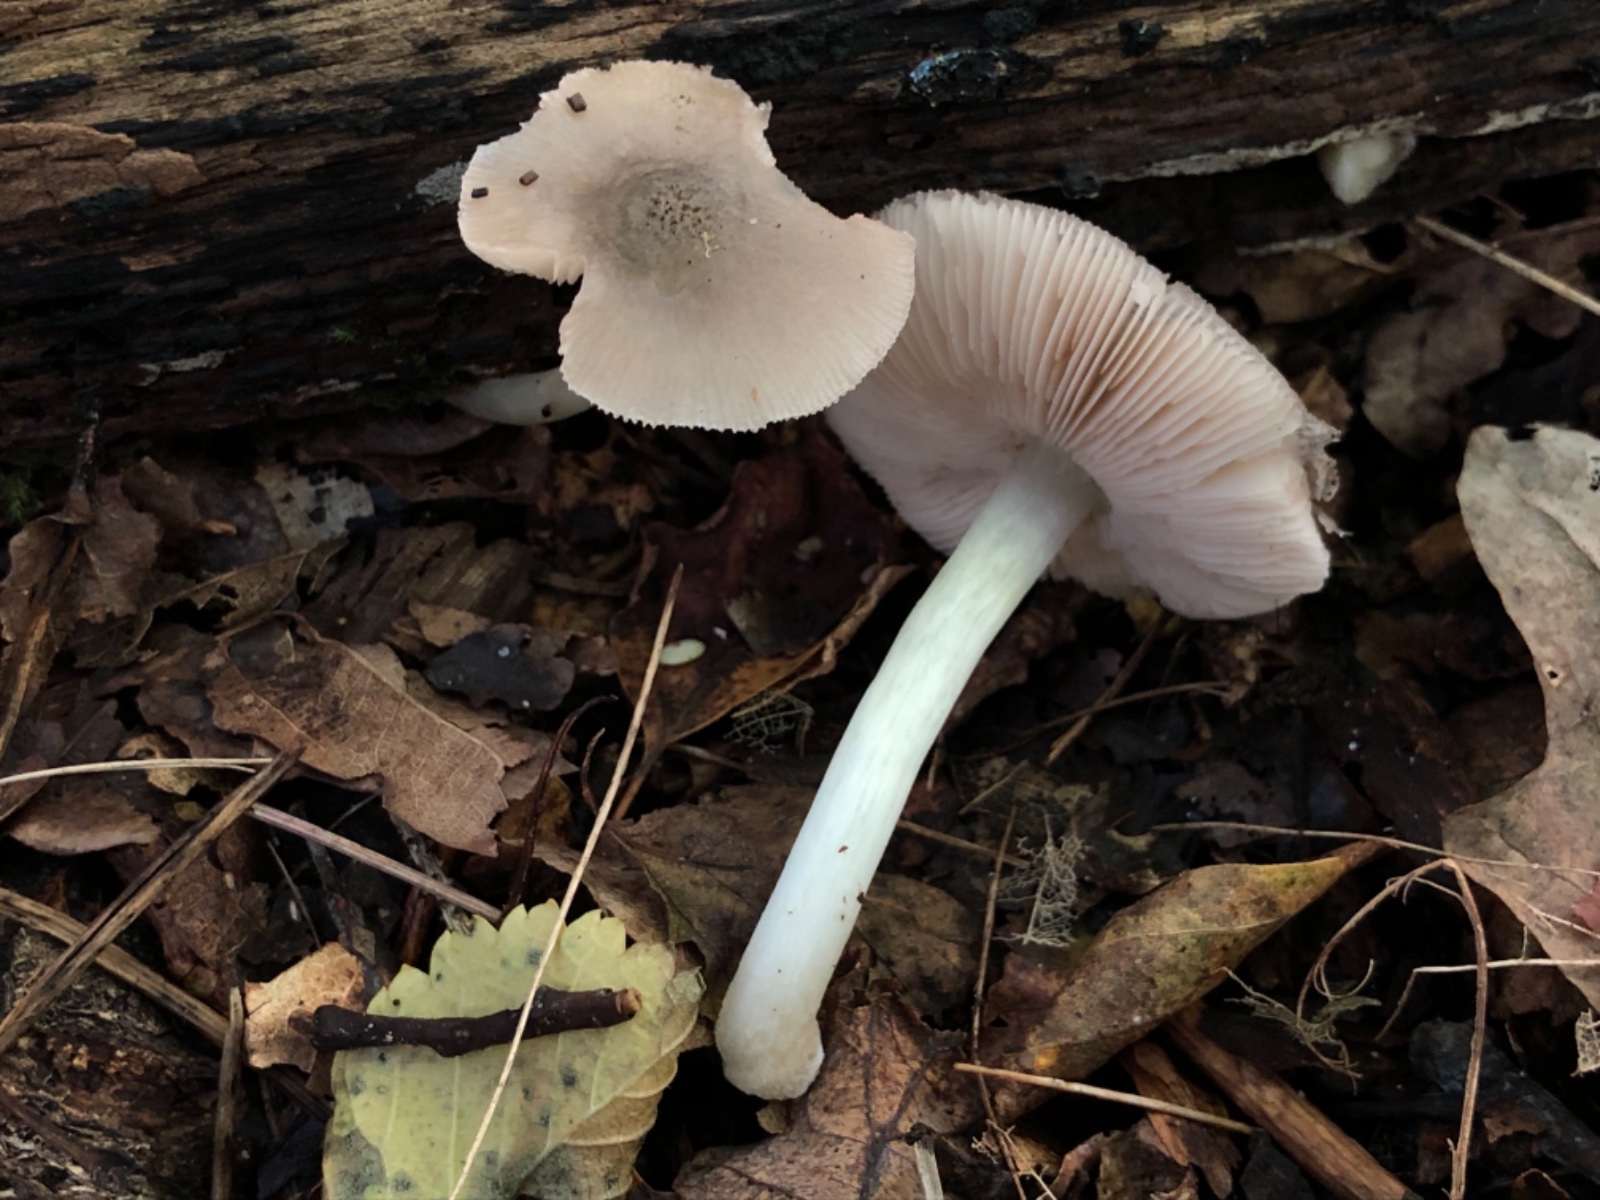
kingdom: Fungi
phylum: Basidiomycota
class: Agaricomycetes
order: Agaricales
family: Pluteaceae
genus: Pluteus
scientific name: Pluteus salicinus
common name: stiv skærmhat
